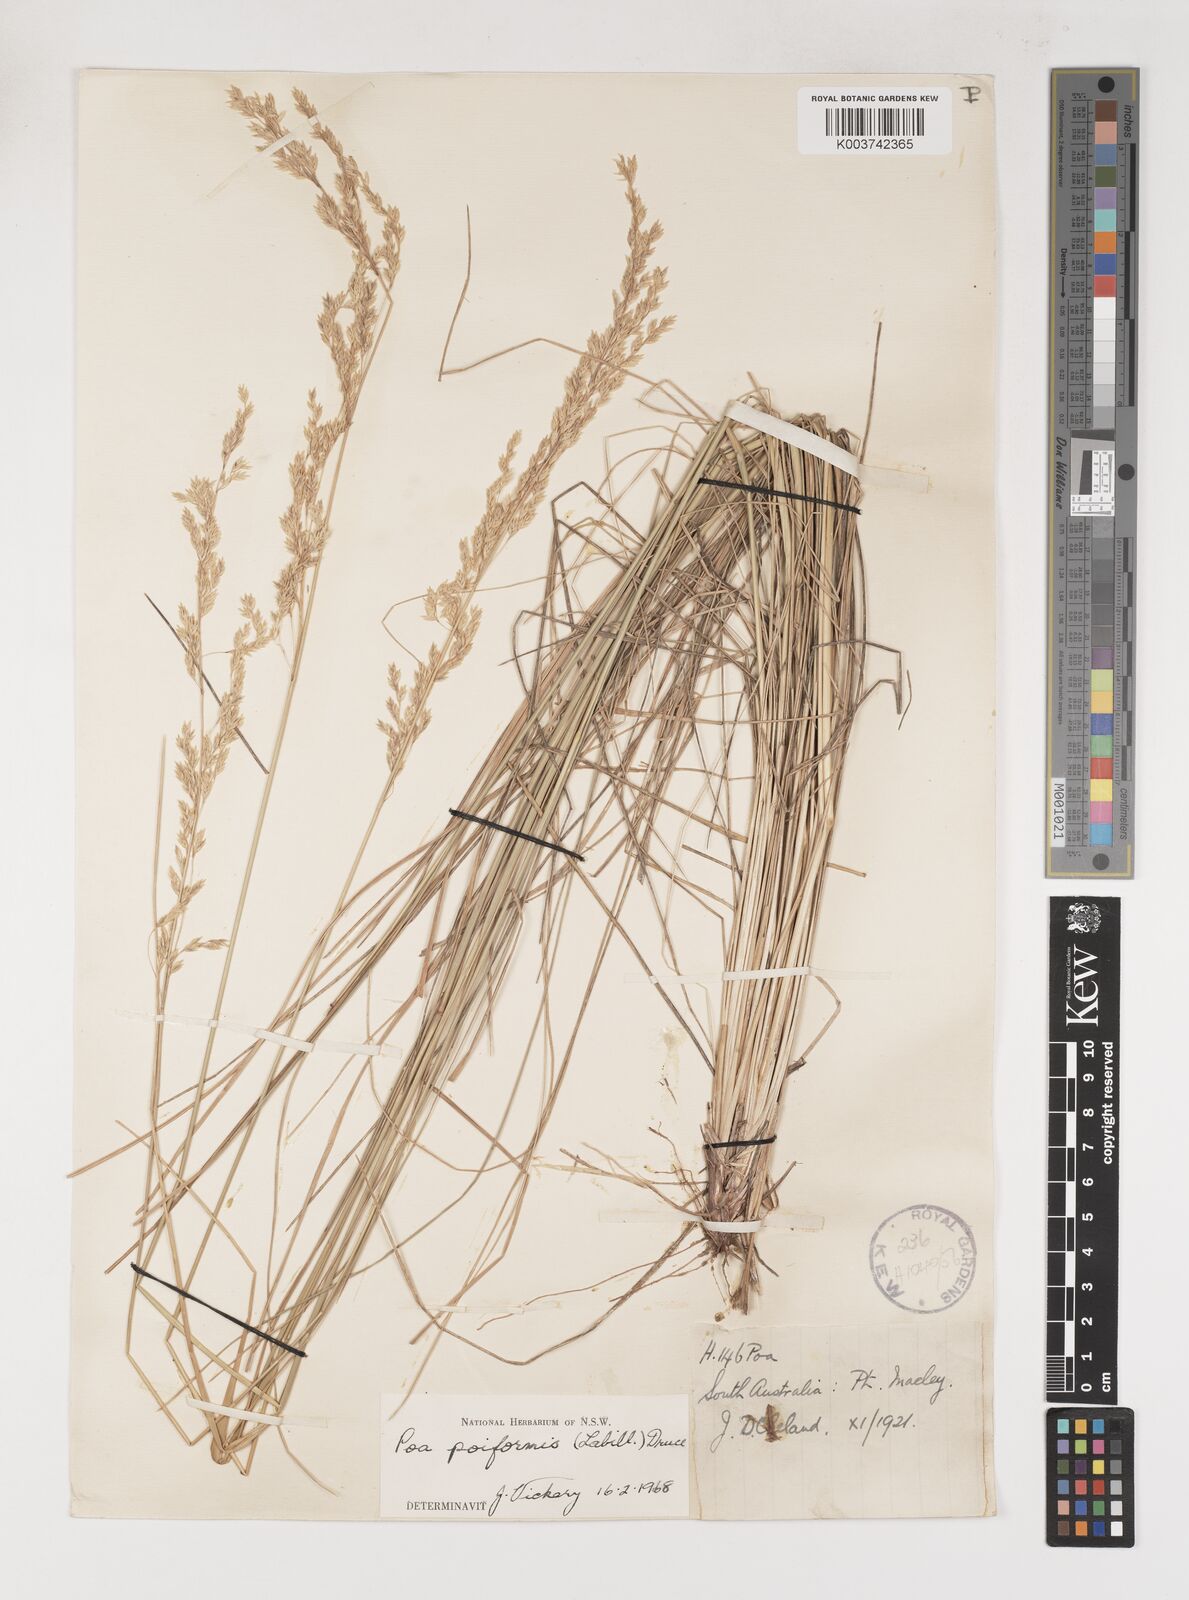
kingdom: Plantae
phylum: Tracheophyta
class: Liliopsida
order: Poales
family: Poaceae
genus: Poa
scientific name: Poa poiformis
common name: Tussock poa
